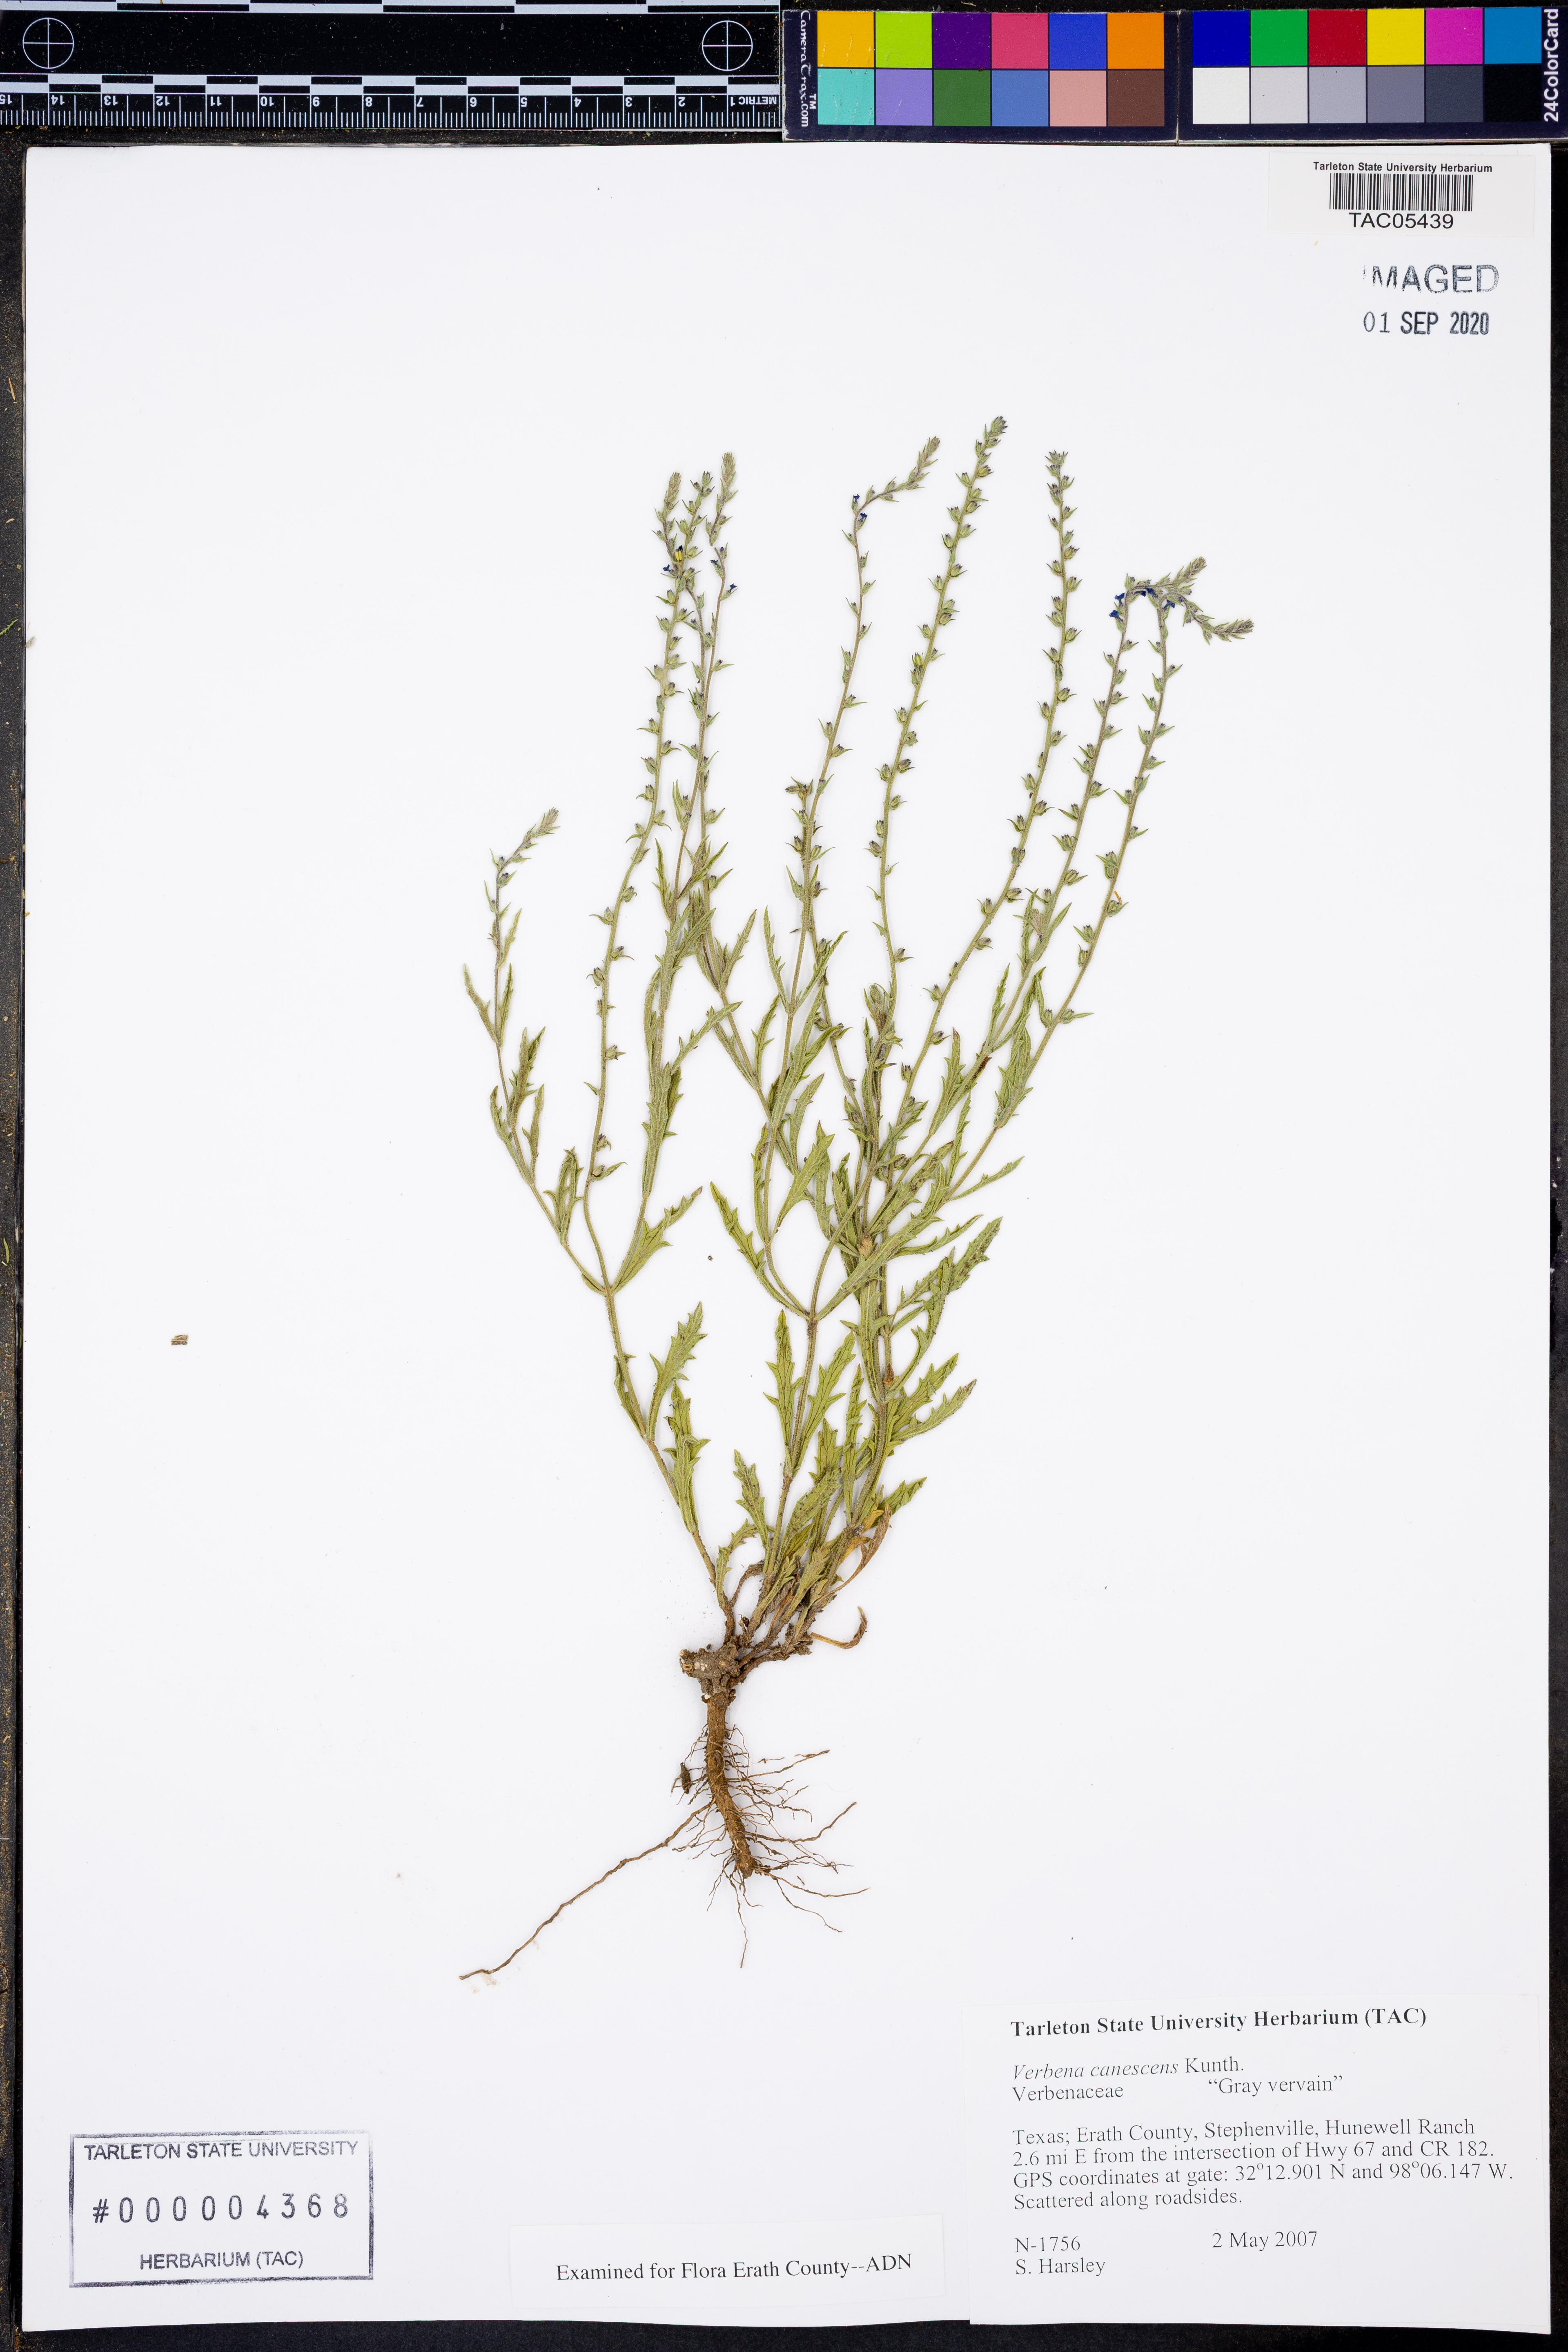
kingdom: Plantae
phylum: Tracheophyta
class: Magnoliopsida
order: Lamiales
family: Verbenaceae
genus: Verbena
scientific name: Verbena canescens
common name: Gray vervain
